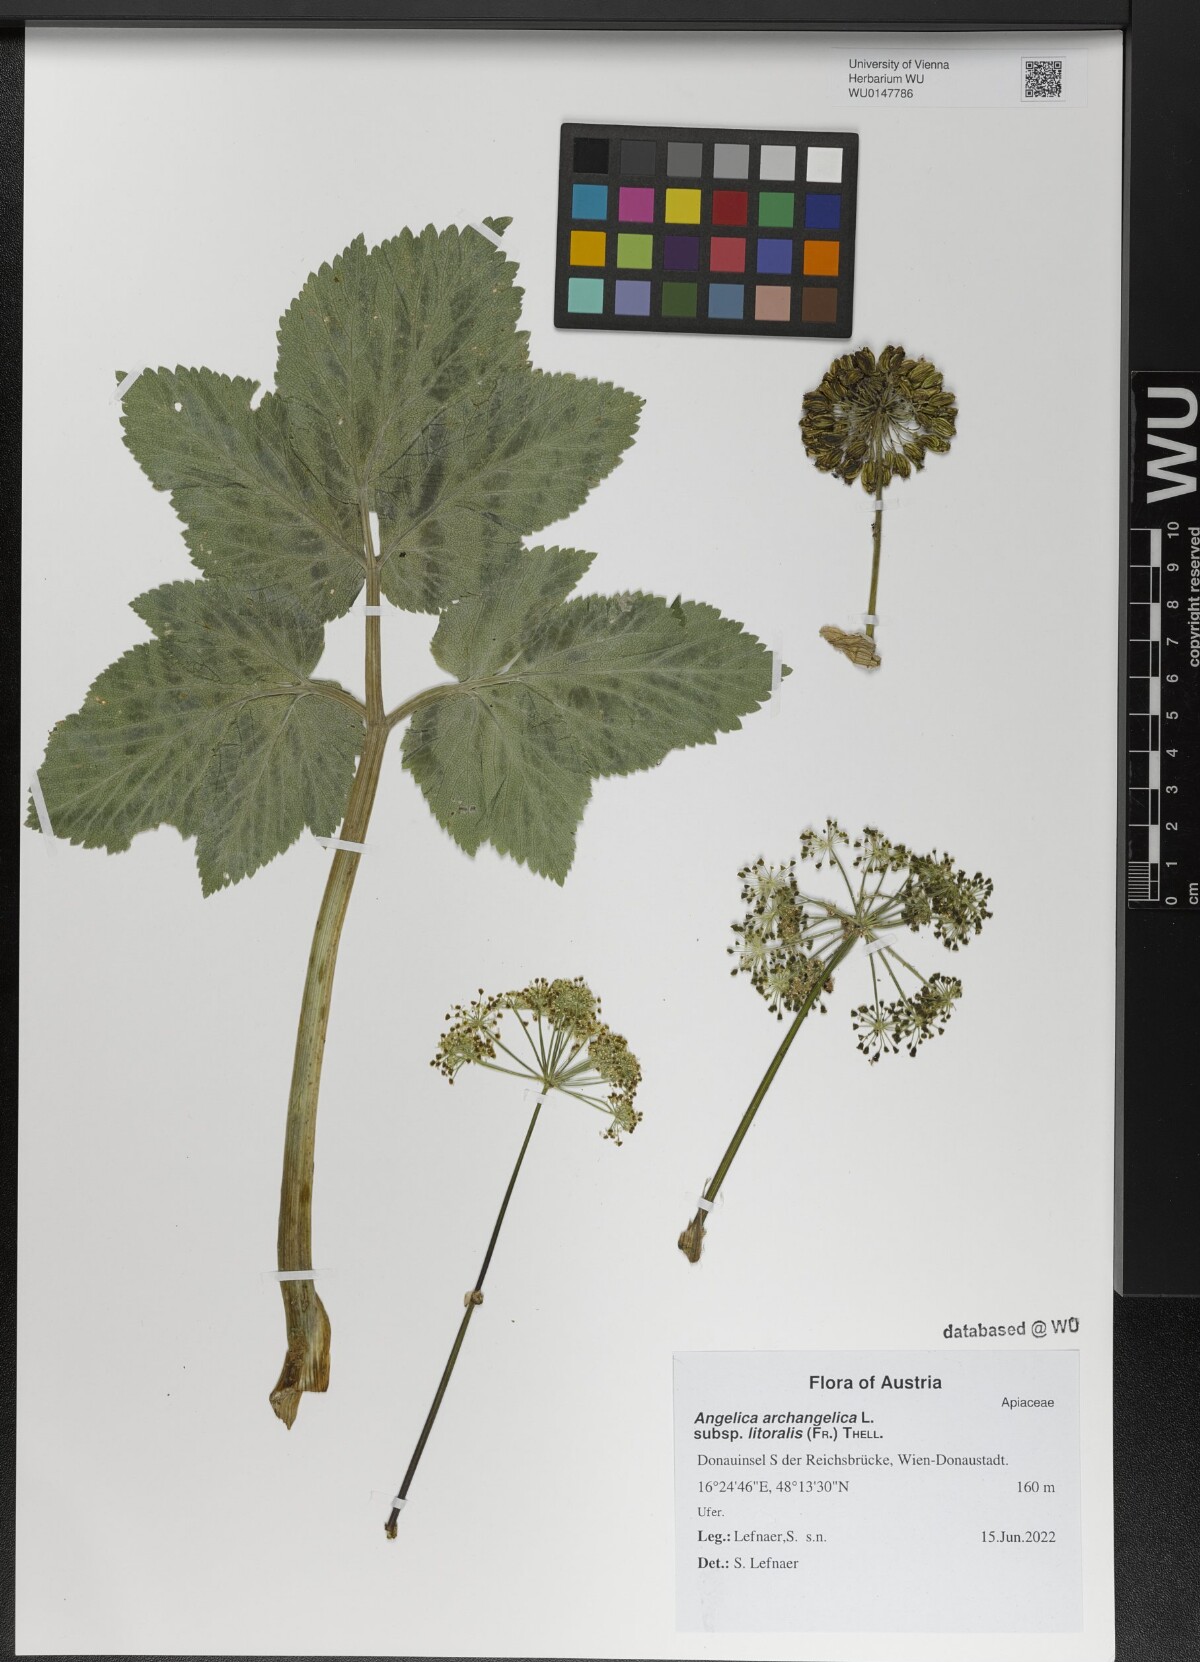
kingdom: Plantae
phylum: Tracheophyta
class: Magnoliopsida
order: Apiales
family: Apiaceae
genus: Angelica
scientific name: Angelica archangelica
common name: Garden angelica
